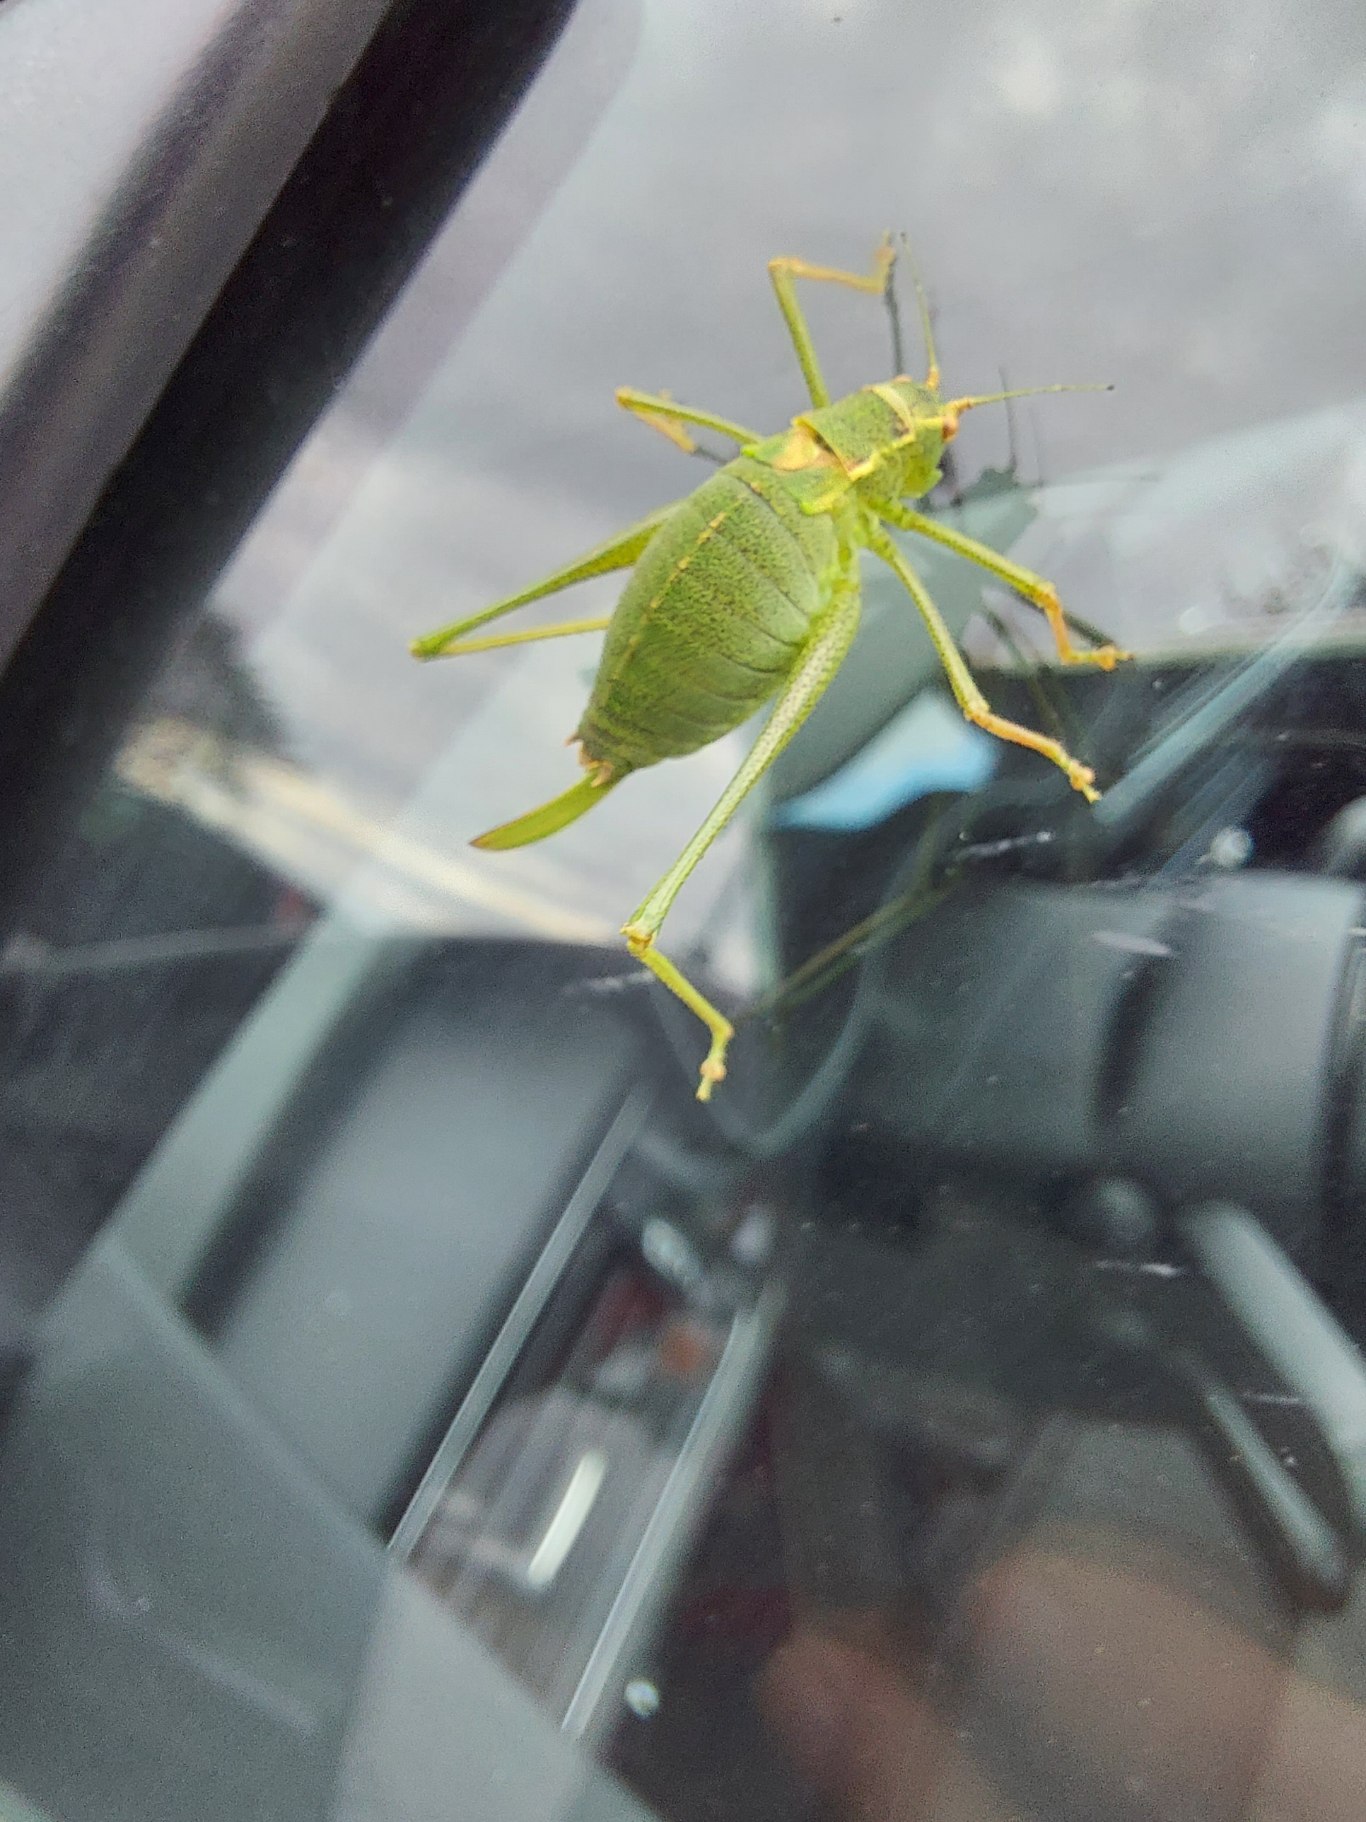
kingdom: Animalia
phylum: Arthropoda
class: Insecta
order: Orthoptera
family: Tettigoniidae
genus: Leptophyes
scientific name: Leptophyes punctatissima
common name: Krumknivgræshoppe
